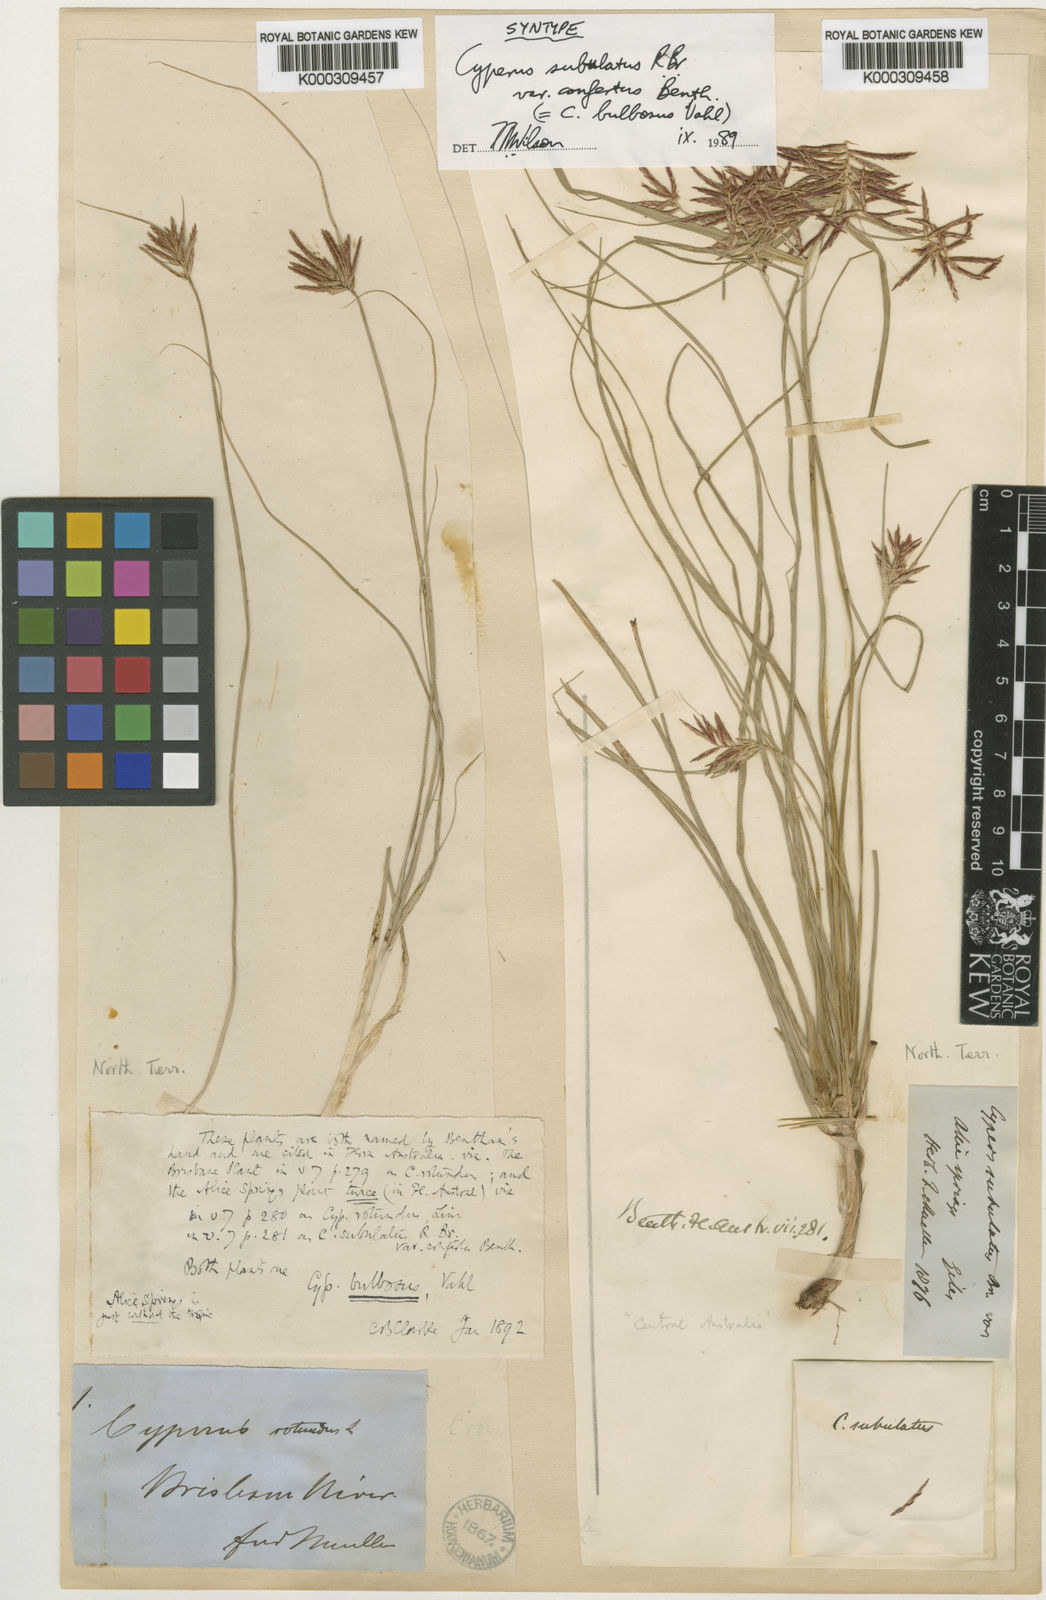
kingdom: Plantae
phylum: Tracheophyta
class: Liliopsida
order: Poales
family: Cyperaceae
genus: Cyperus
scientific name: Cyperus bulbosus
